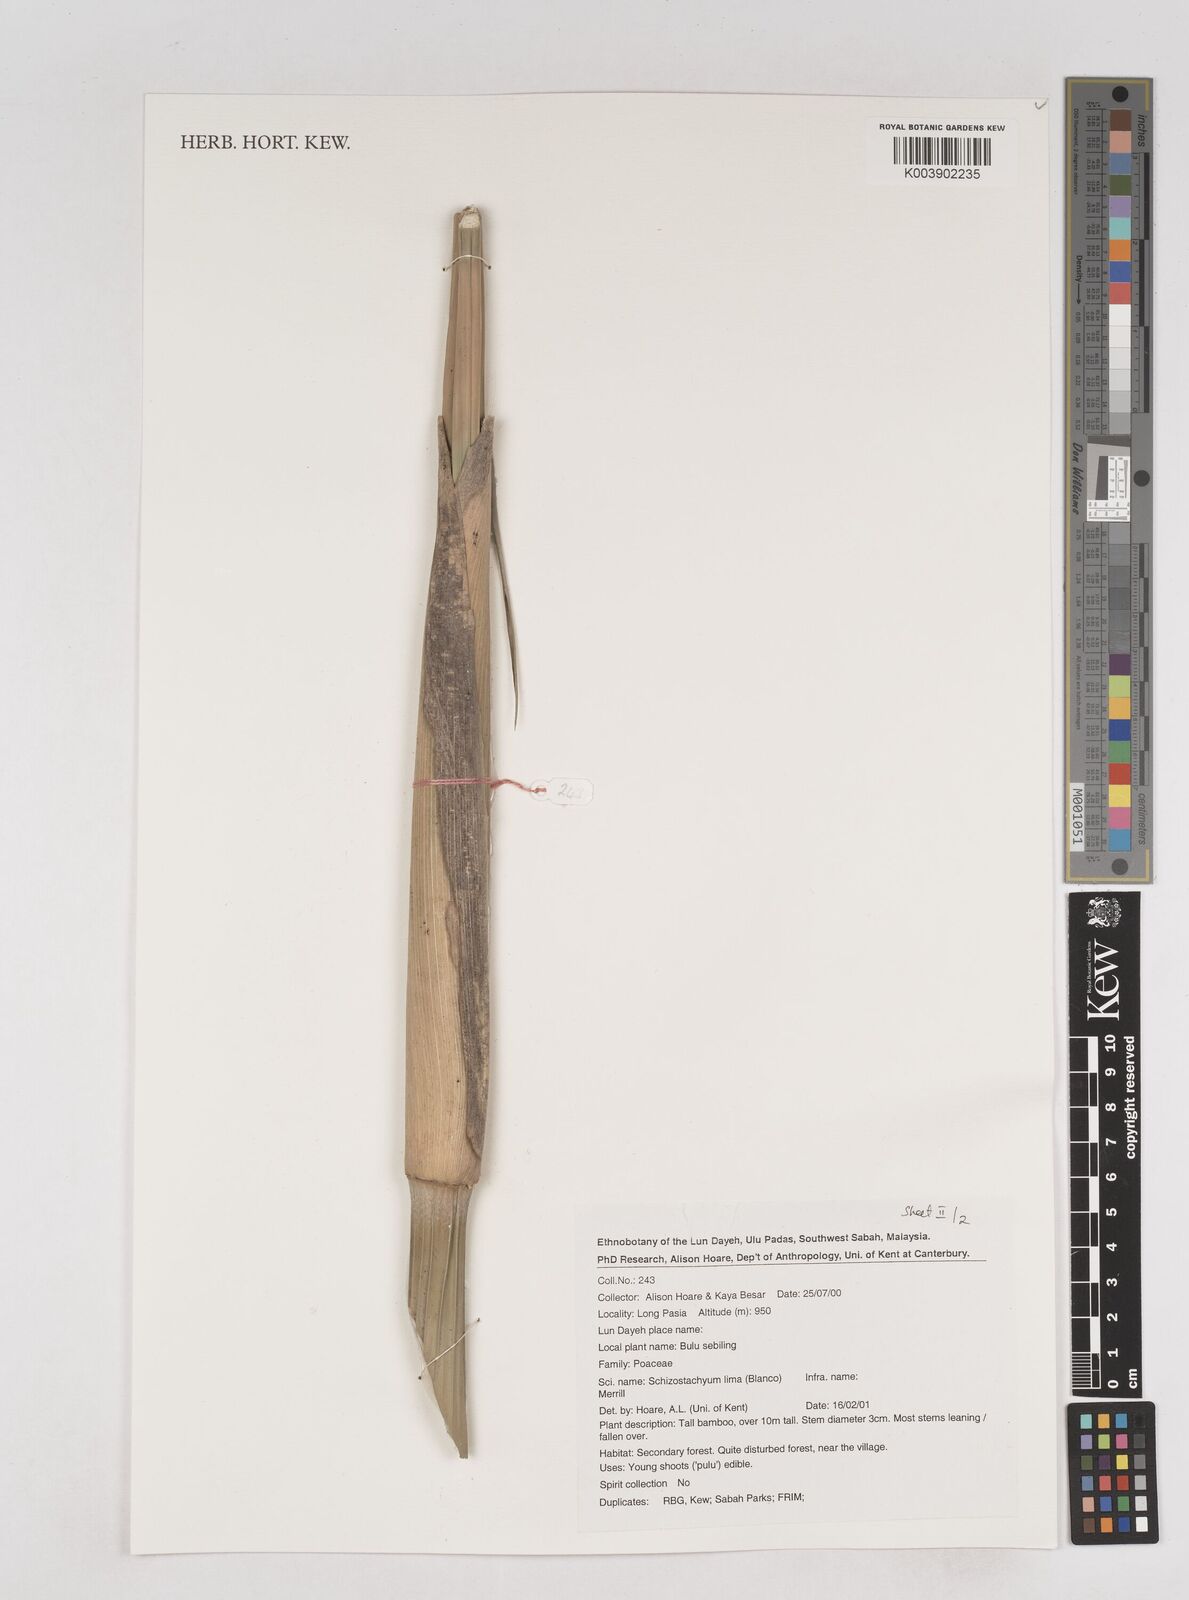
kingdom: Plantae
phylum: Tracheophyta
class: Liliopsida
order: Poales
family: Poaceae
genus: Schizostachyum
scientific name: Schizostachyum lima
